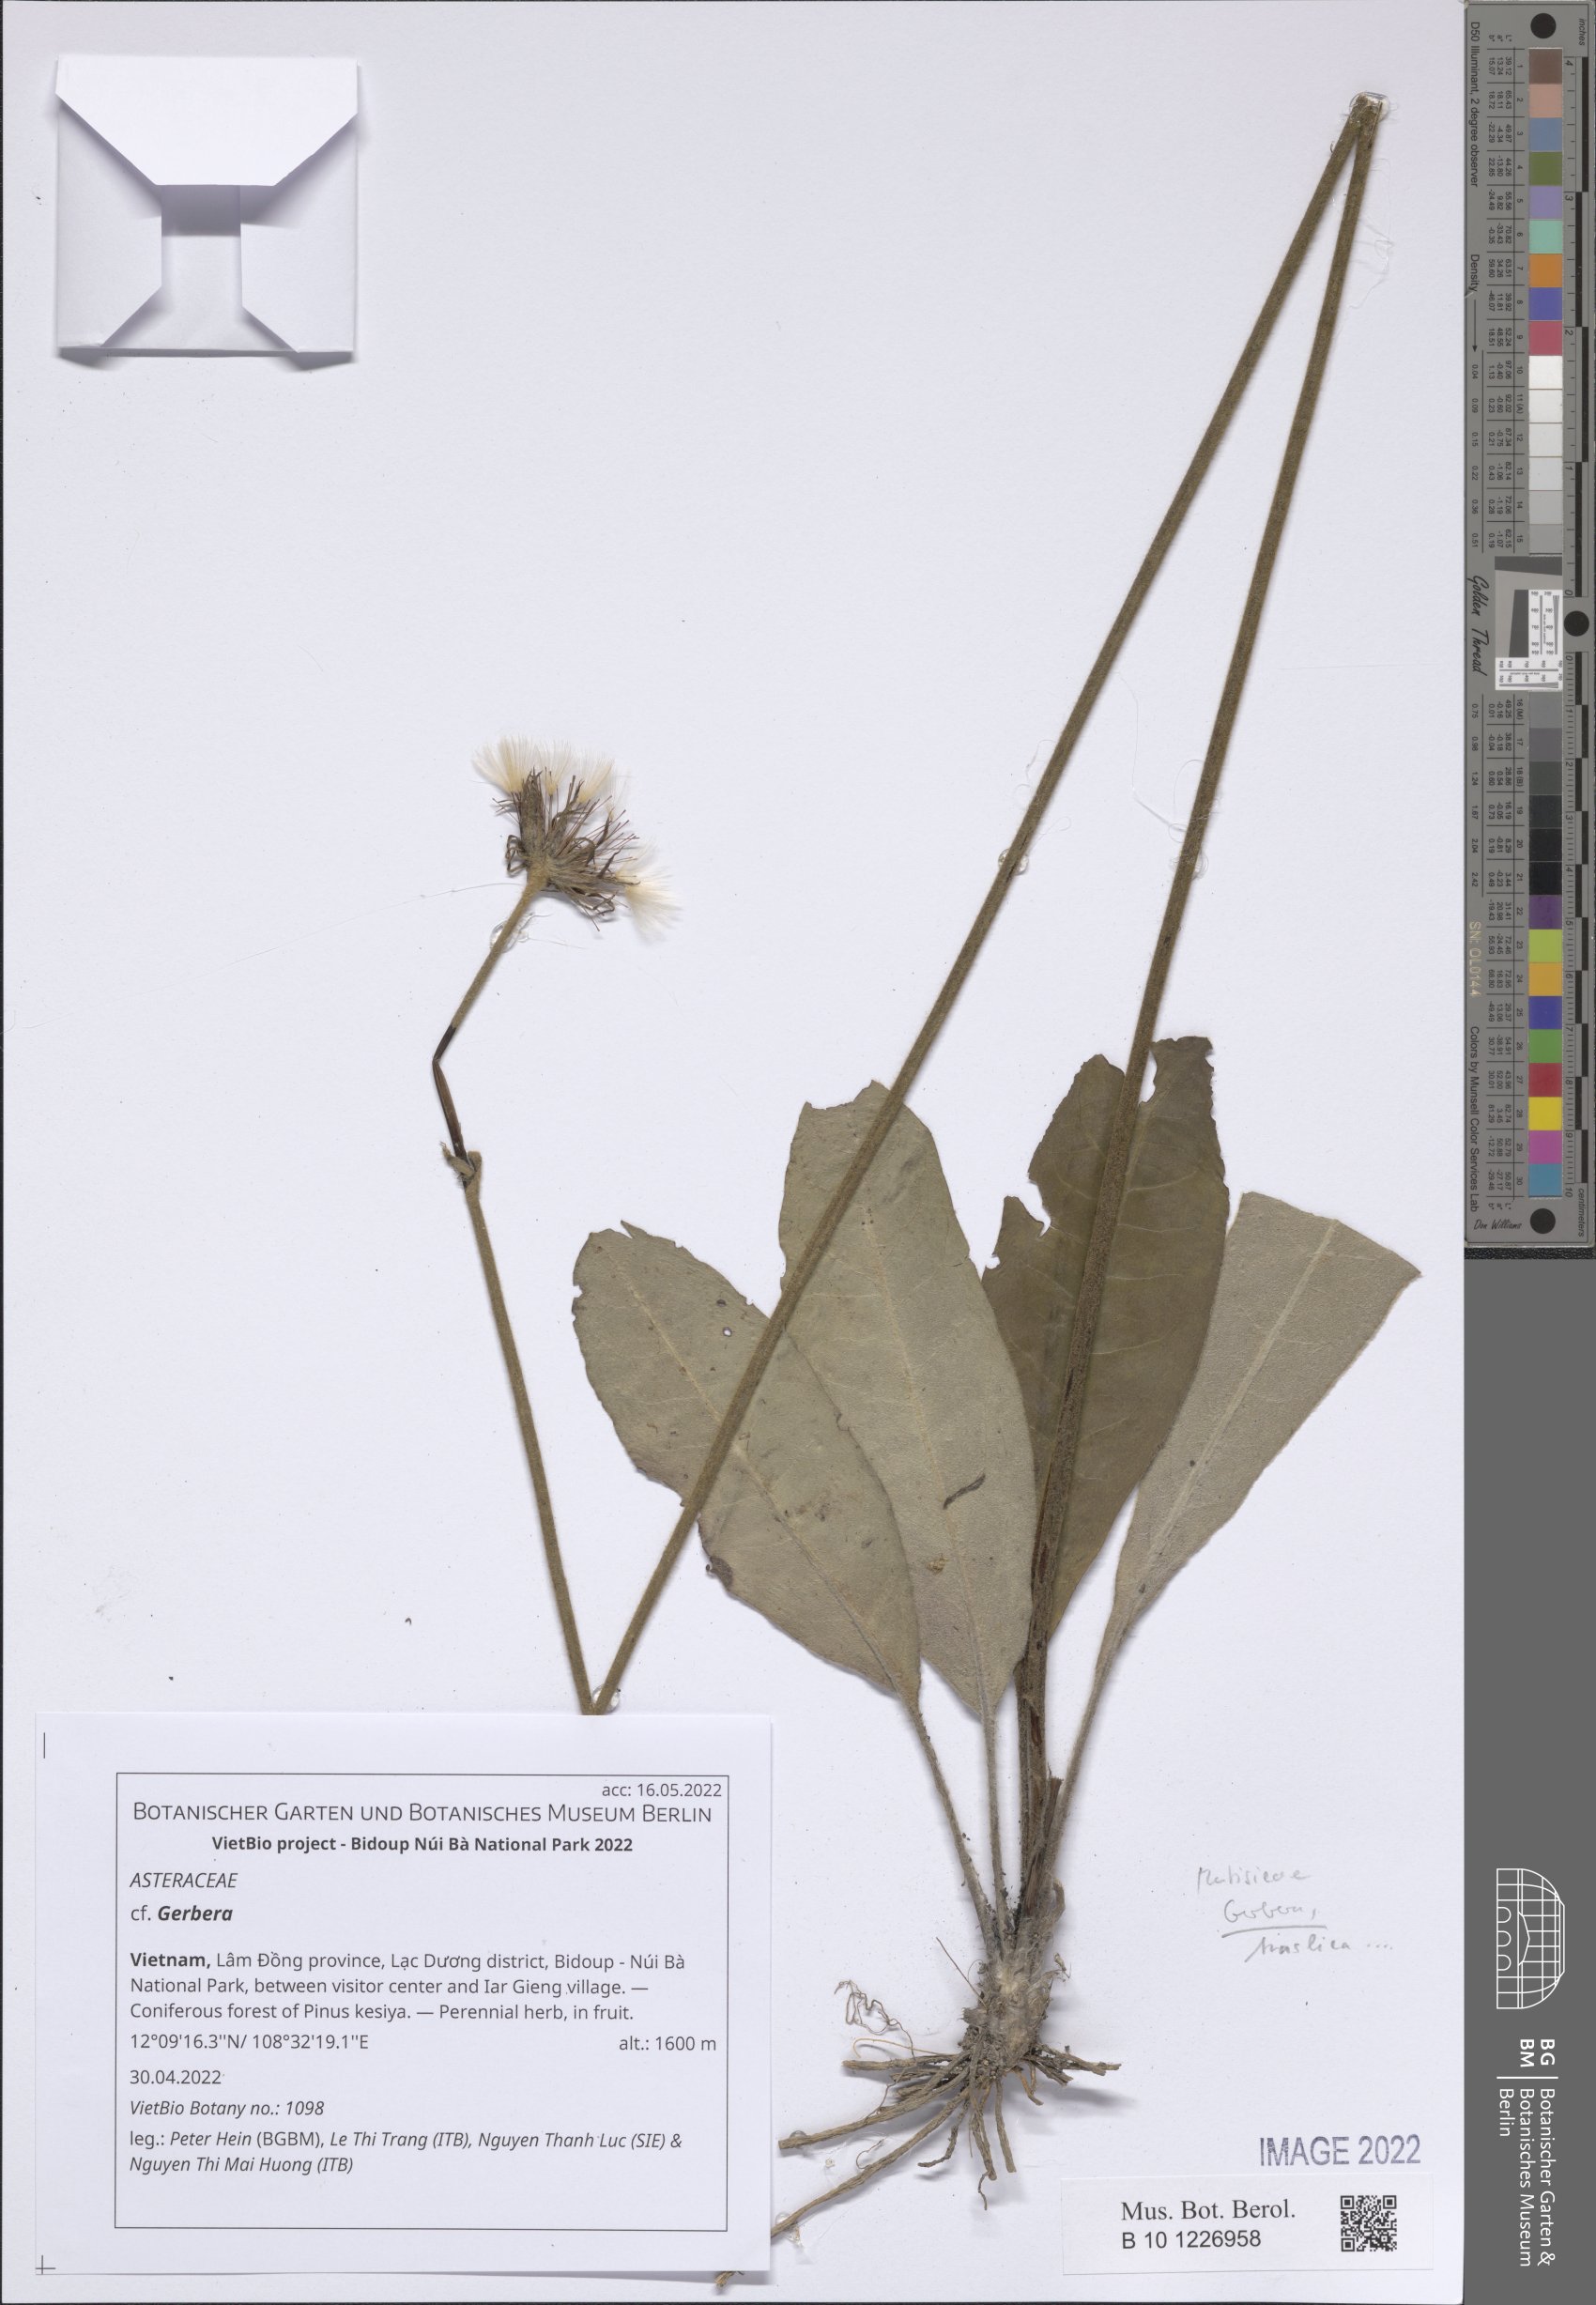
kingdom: Plantae
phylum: Tracheophyta
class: Magnoliopsida
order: Asterales
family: Asteraceae
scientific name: Asteraceae
